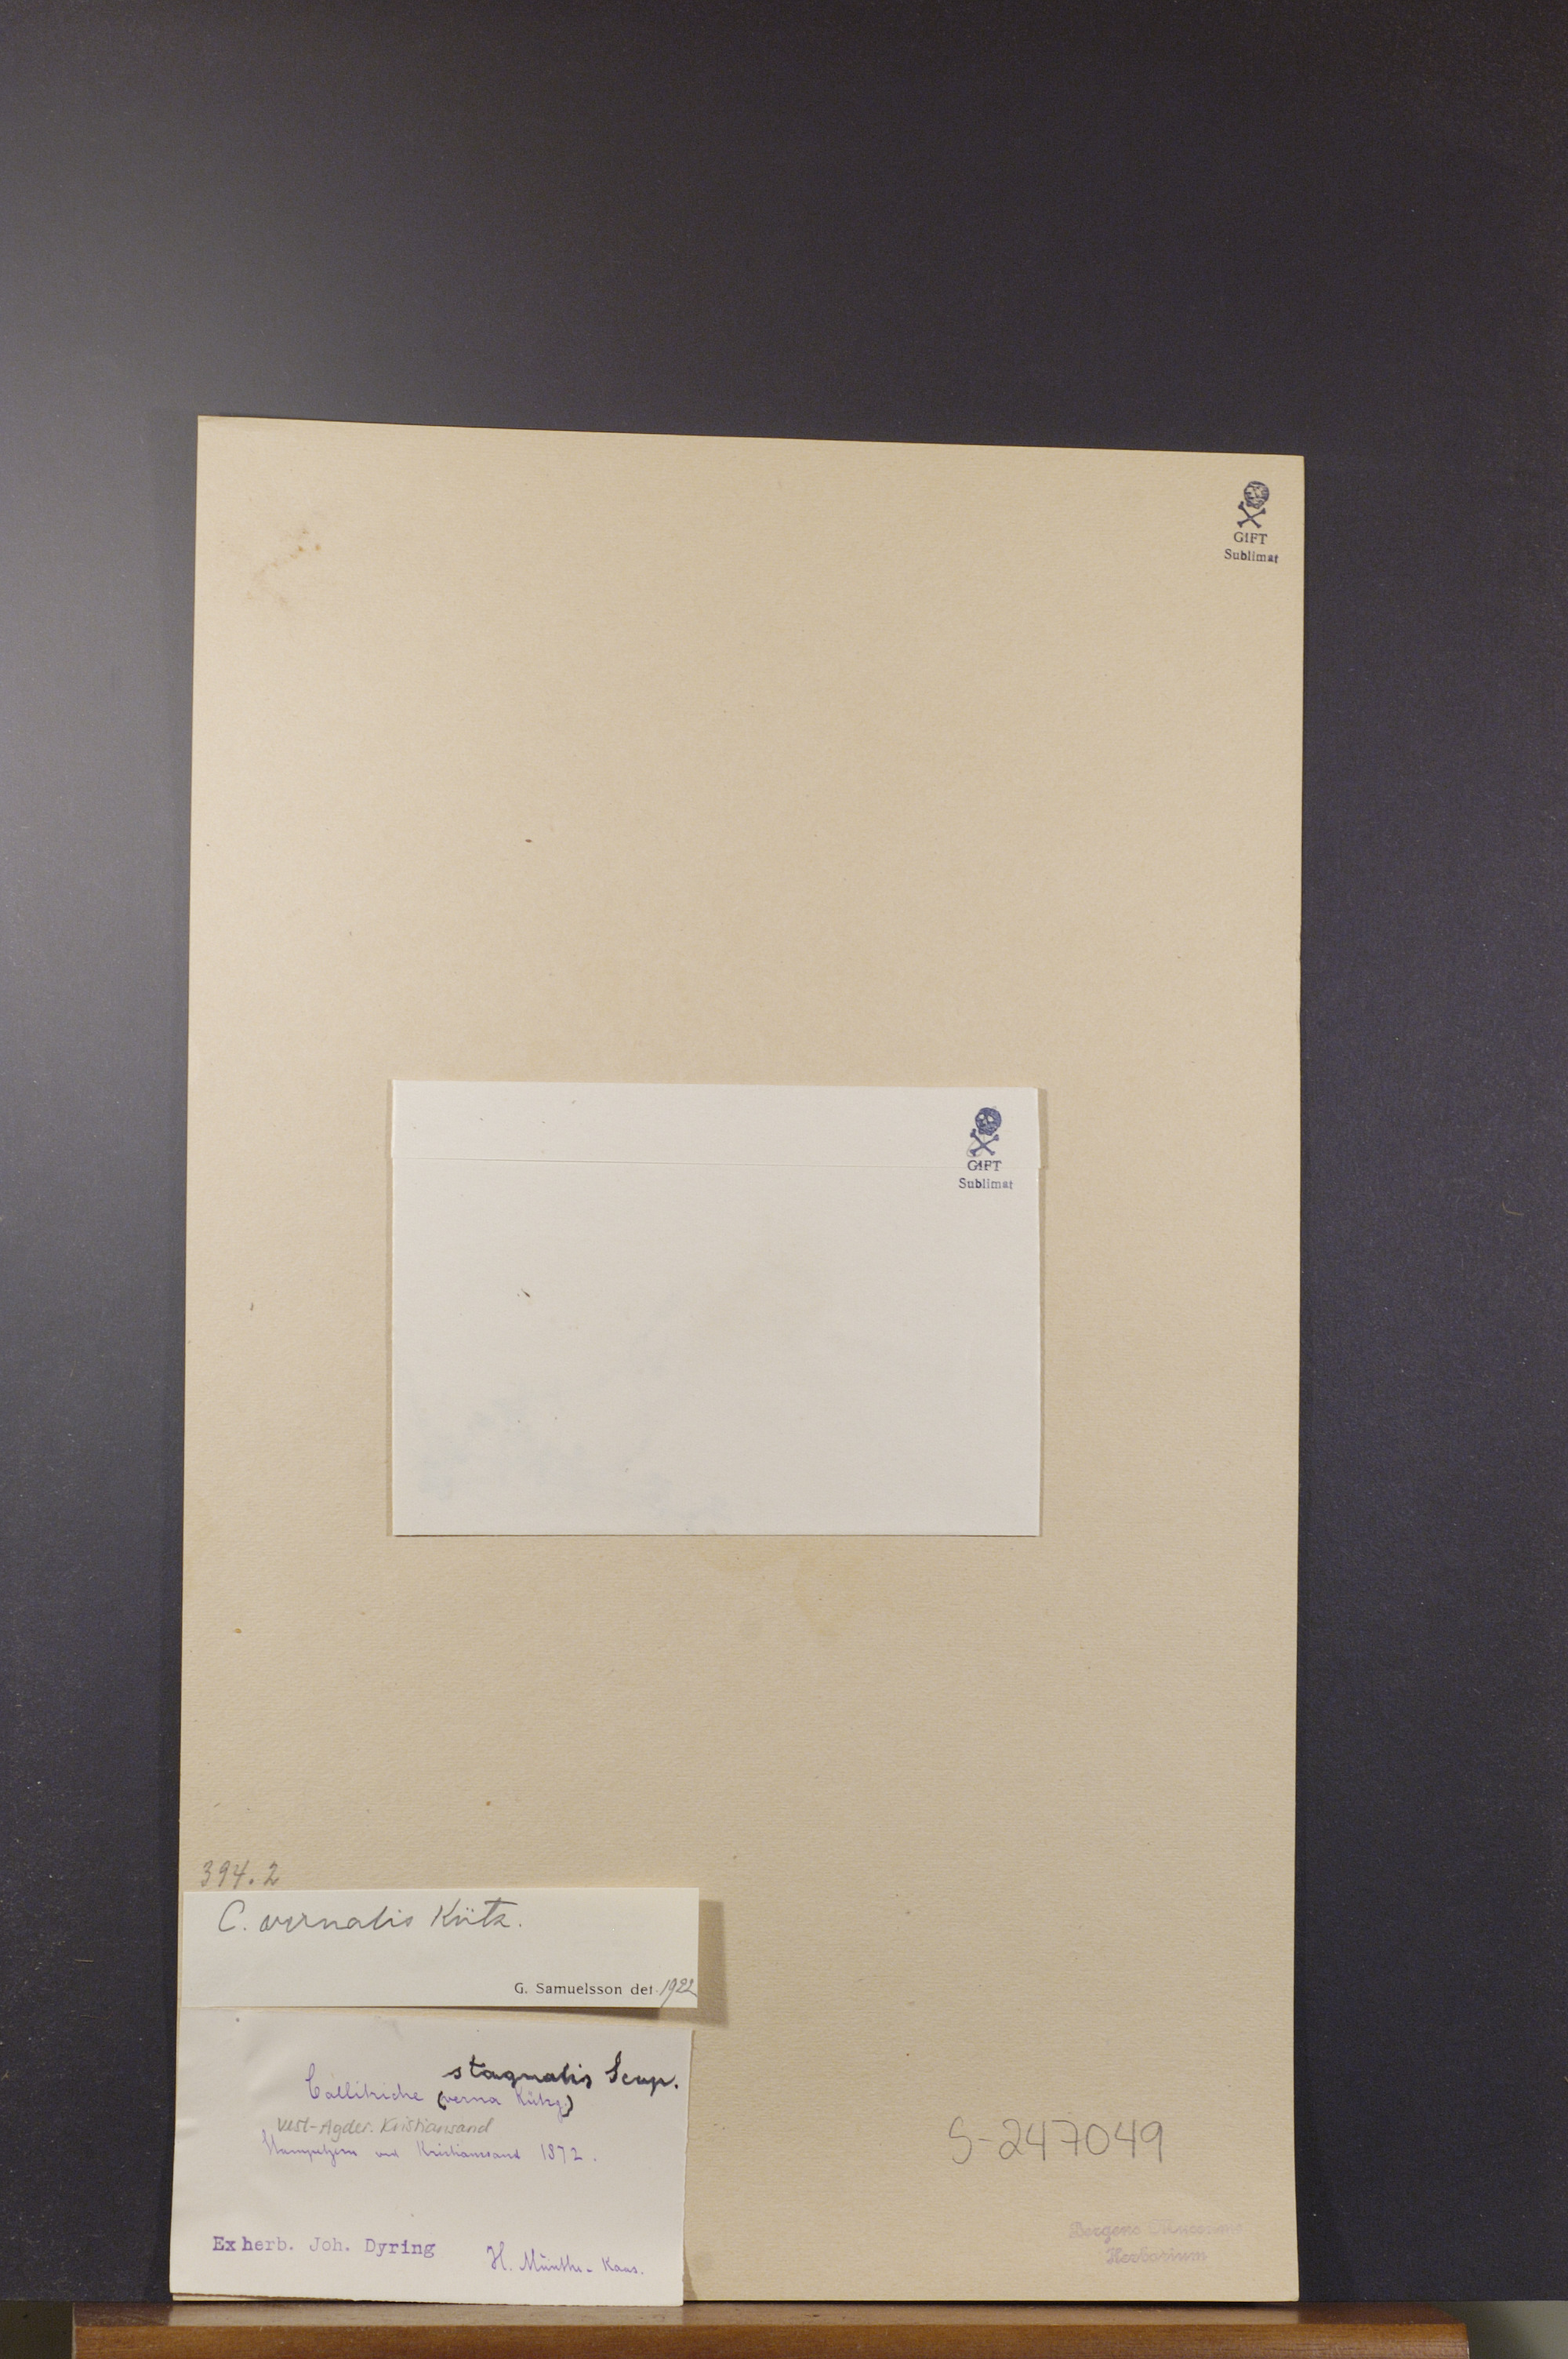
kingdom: Plantae
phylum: Tracheophyta
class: Magnoliopsida
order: Lamiales
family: Plantaginaceae
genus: Callitriche
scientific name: Callitriche palustris
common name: Spring water-starwort
